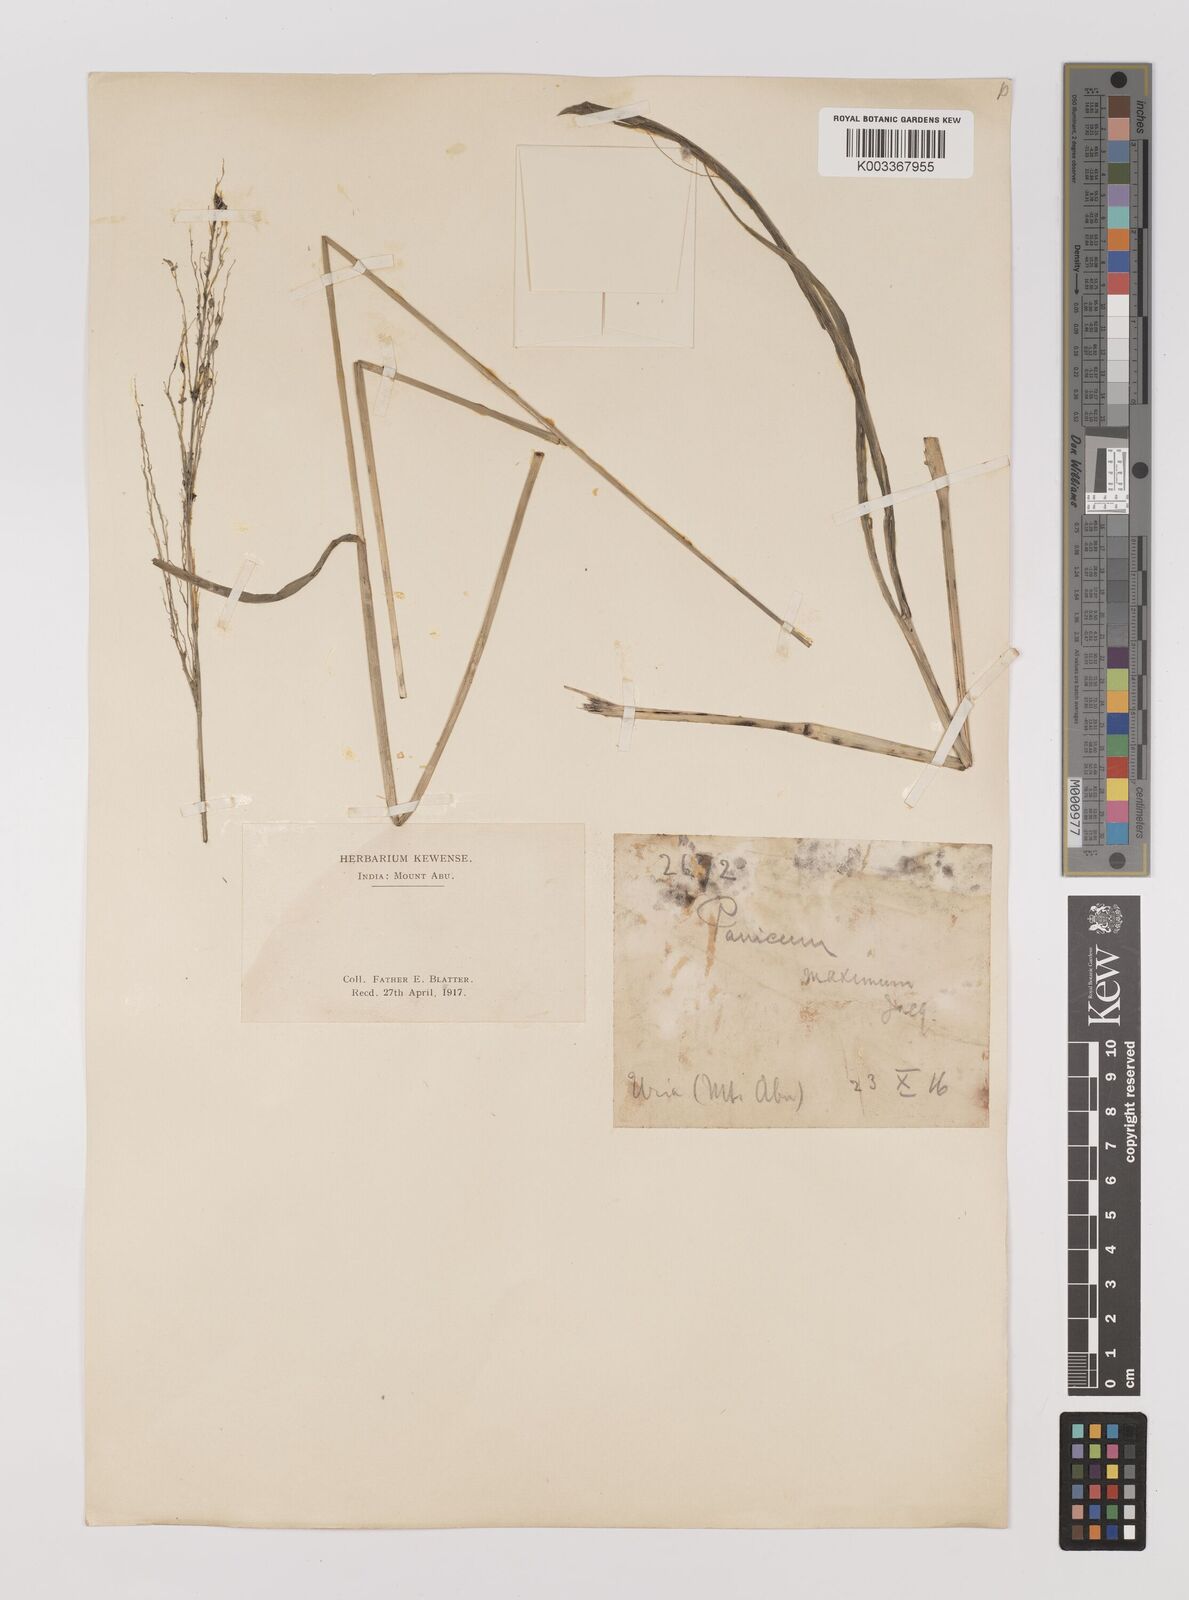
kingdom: Plantae
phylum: Tracheophyta
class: Liliopsida
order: Poales
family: Poaceae
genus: Megathyrsus
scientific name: Megathyrsus maximus
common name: Guineagrass
